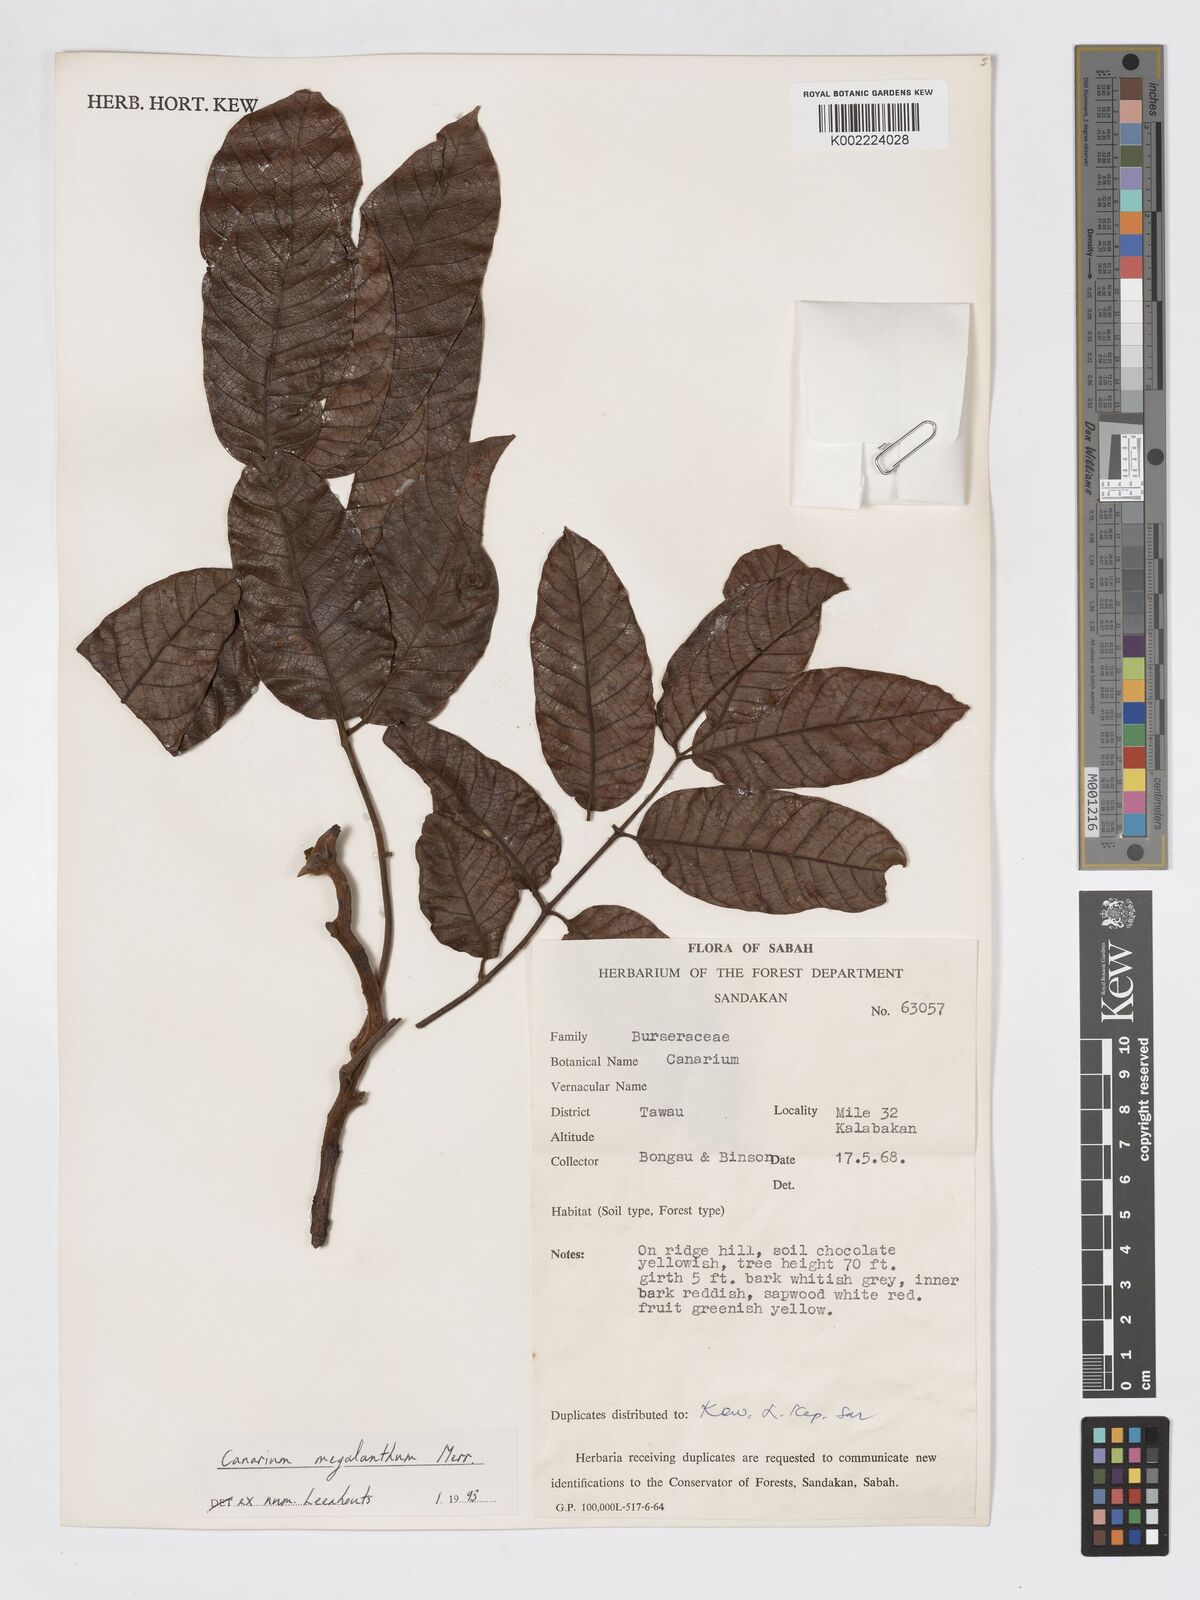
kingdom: Plantae
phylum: Tracheophyta
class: Magnoliopsida
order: Sapindales
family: Burseraceae
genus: Canarium
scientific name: Canarium megalanthum
